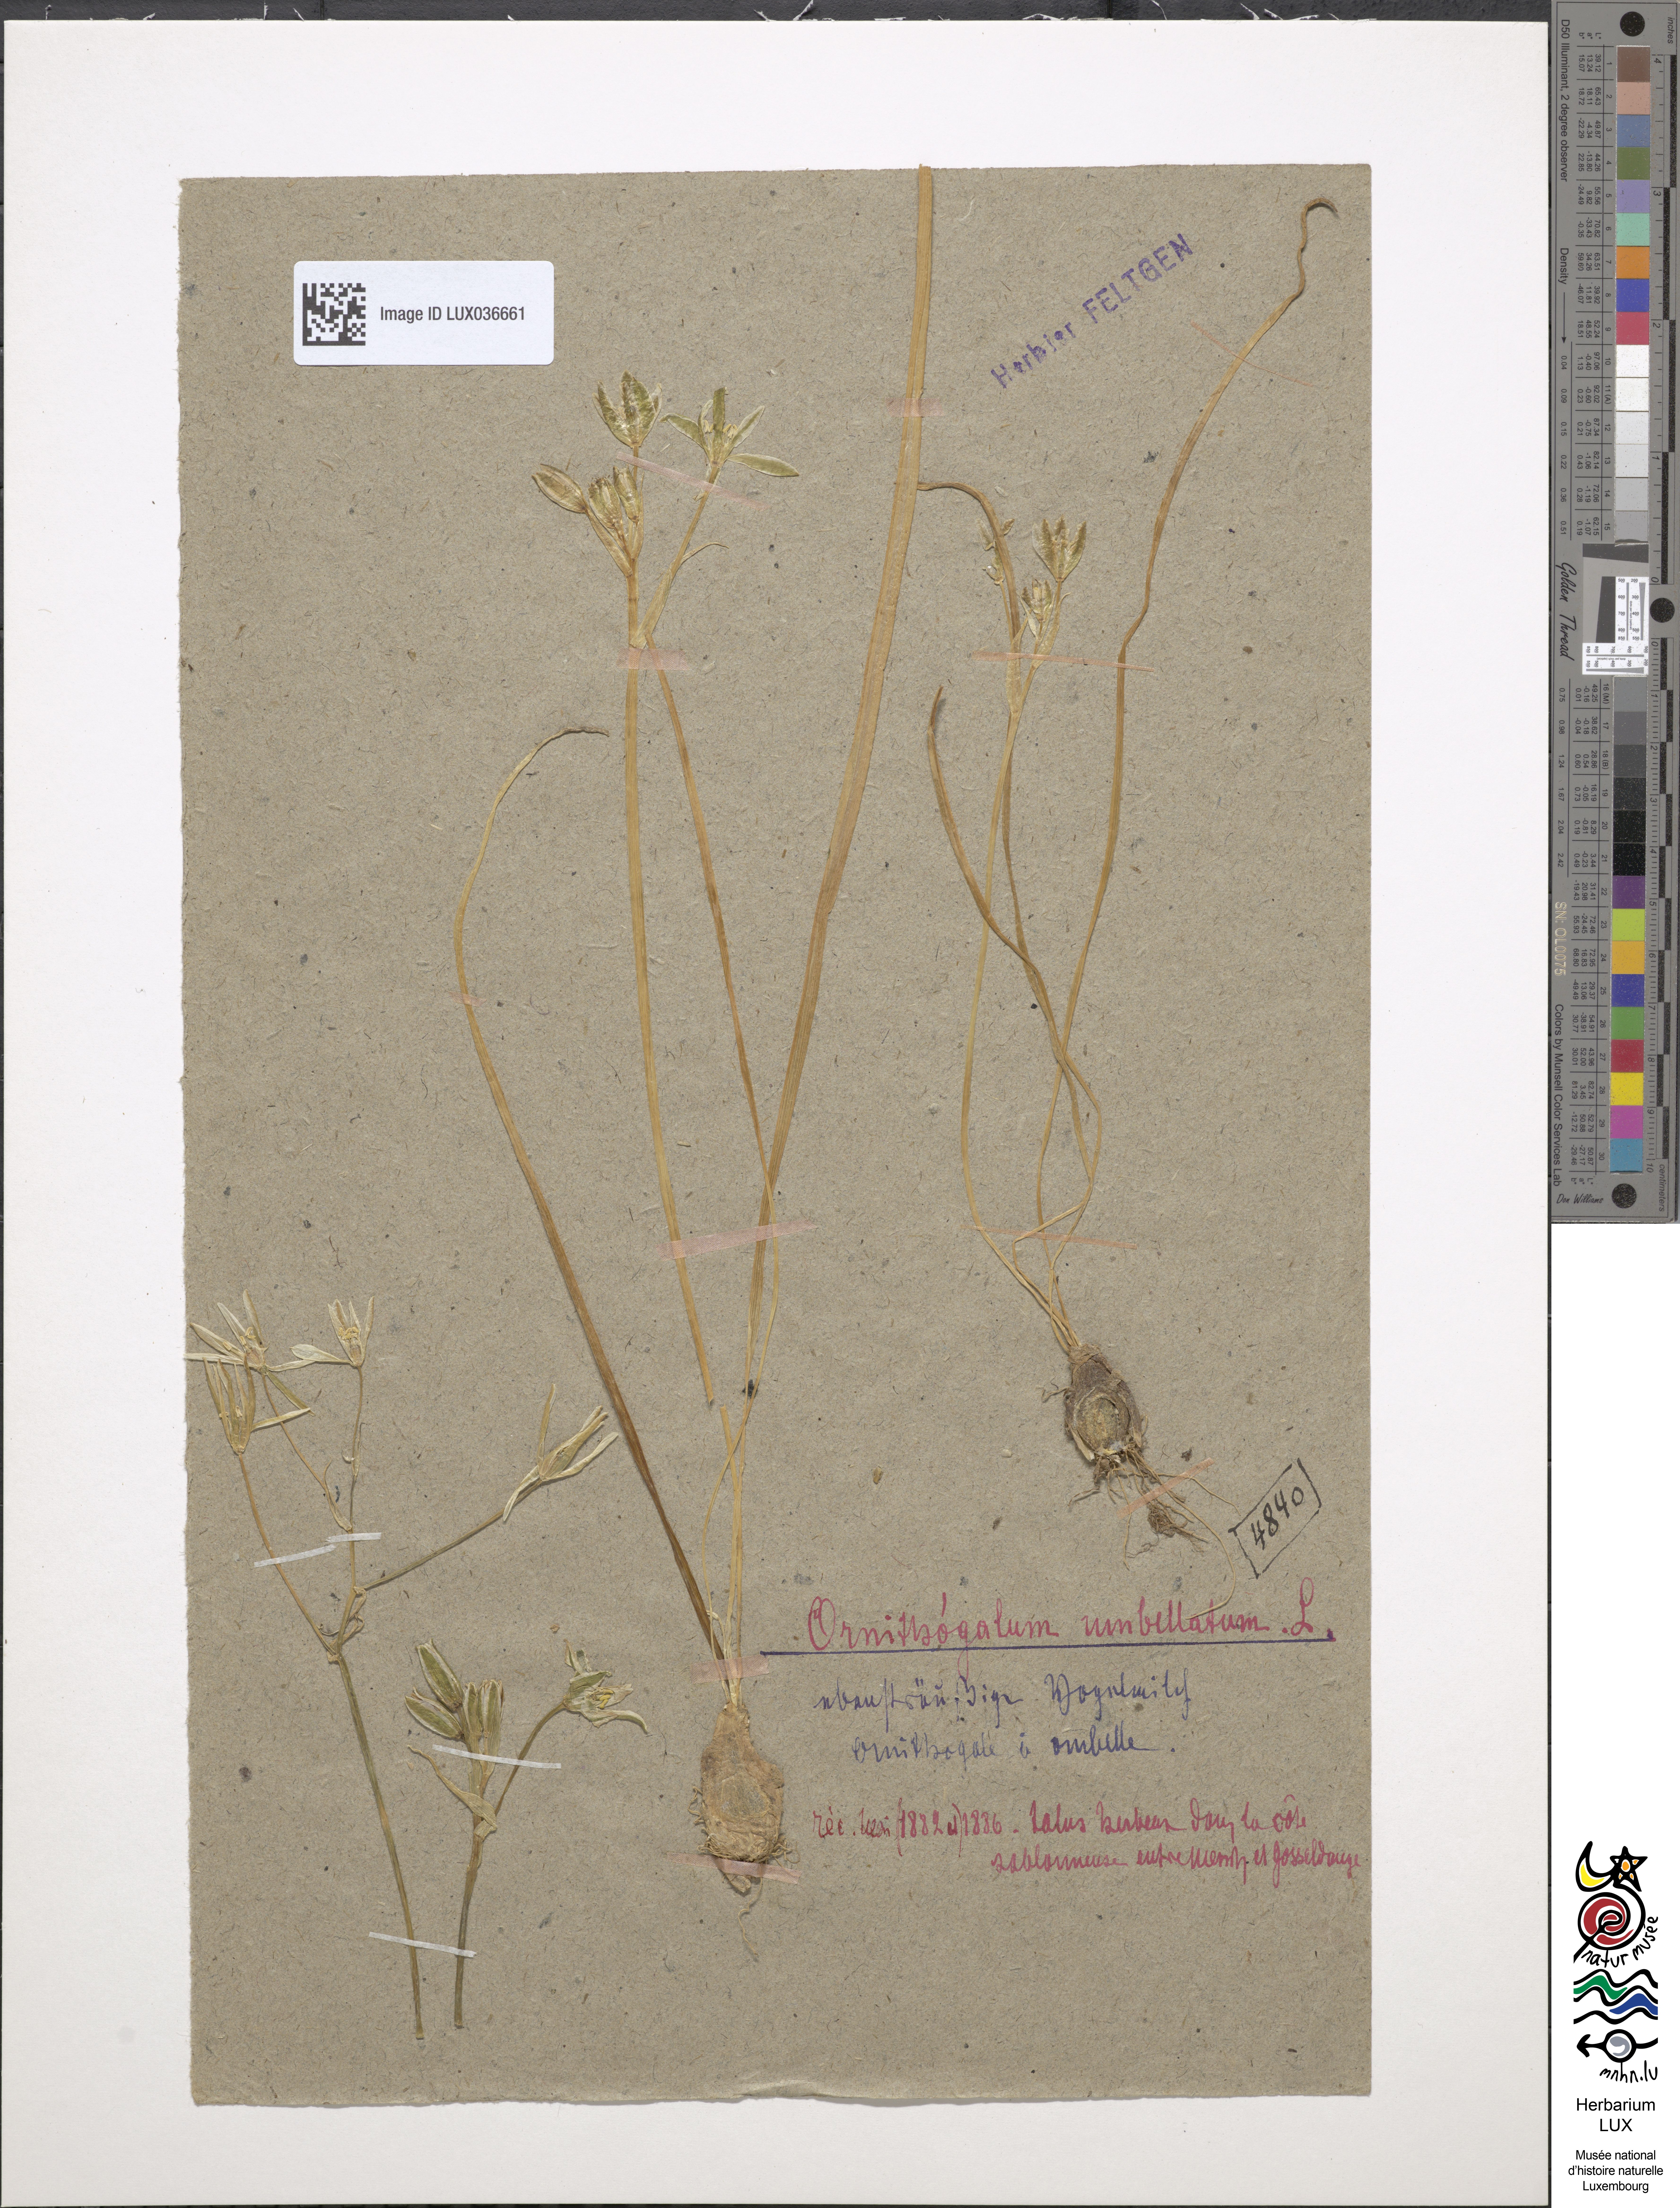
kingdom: Plantae
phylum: Tracheophyta
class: Liliopsida
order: Asparagales
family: Asparagaceae
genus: Ornithogalum
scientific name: Ornithogalum umbellatum
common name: Garden star-of-bethlehem
